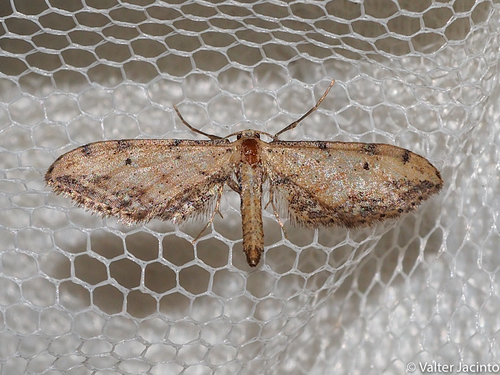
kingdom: Animalia
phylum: Arthropoda
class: Insecta
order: Lepidoptera
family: Geometridae
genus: Idaea
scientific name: Idaea attenuaria
